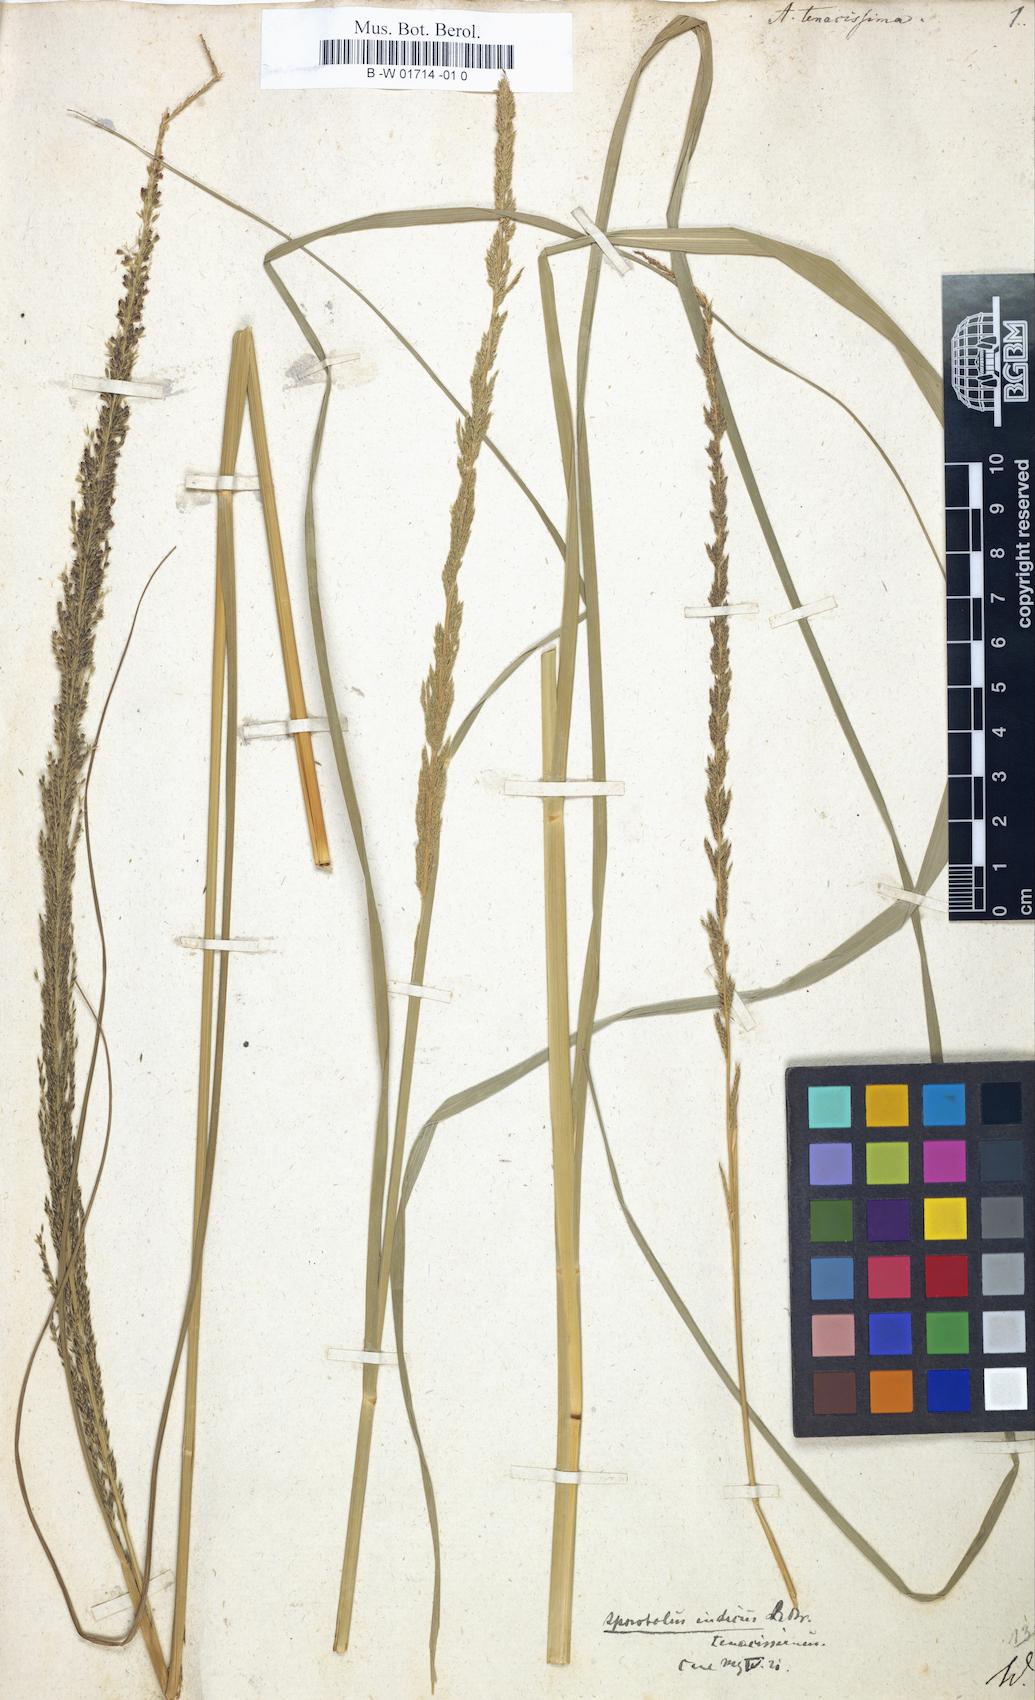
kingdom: Plantae
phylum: Tracheophyta
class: Liliopsida
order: Poales
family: Poaceae
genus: Sporobolus
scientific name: Sporobolus indicus
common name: Smut grass
